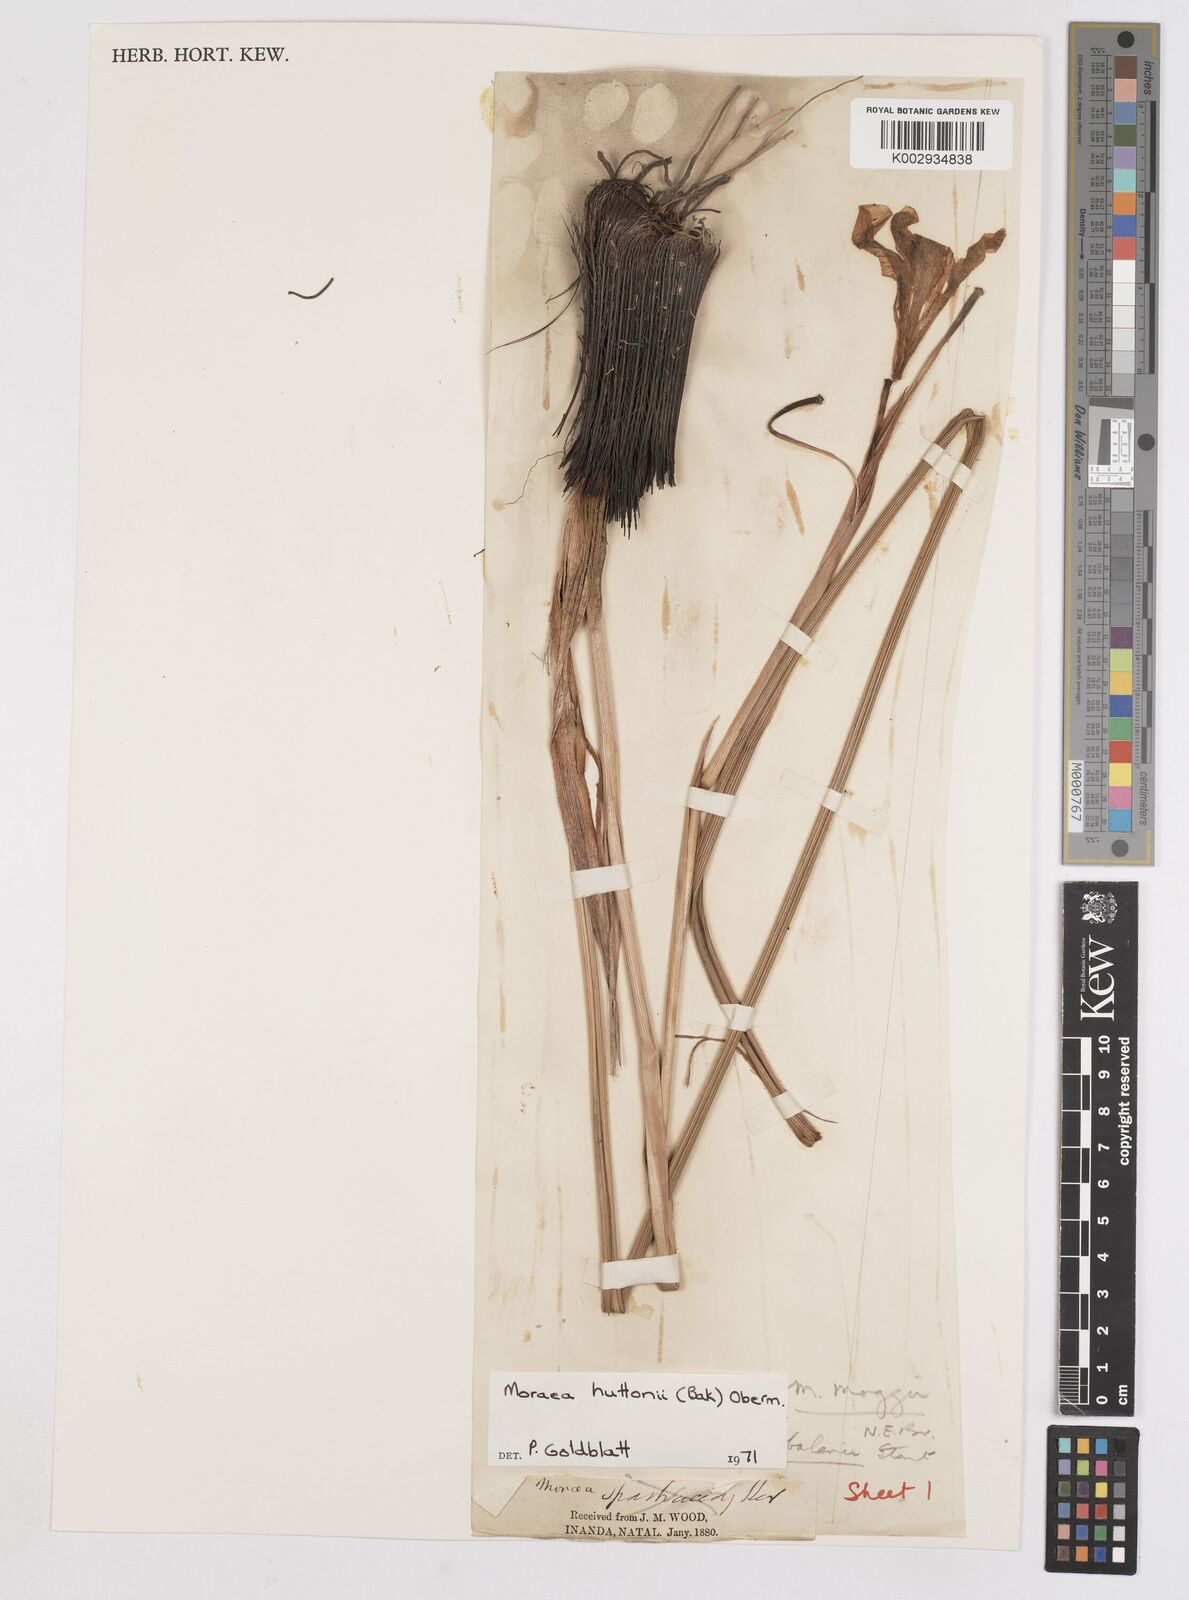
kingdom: Plantae
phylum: Tracheophyta
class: Liliopsida
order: Asparagales
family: Iridaceae
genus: Moraea
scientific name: Moraea huttonii
